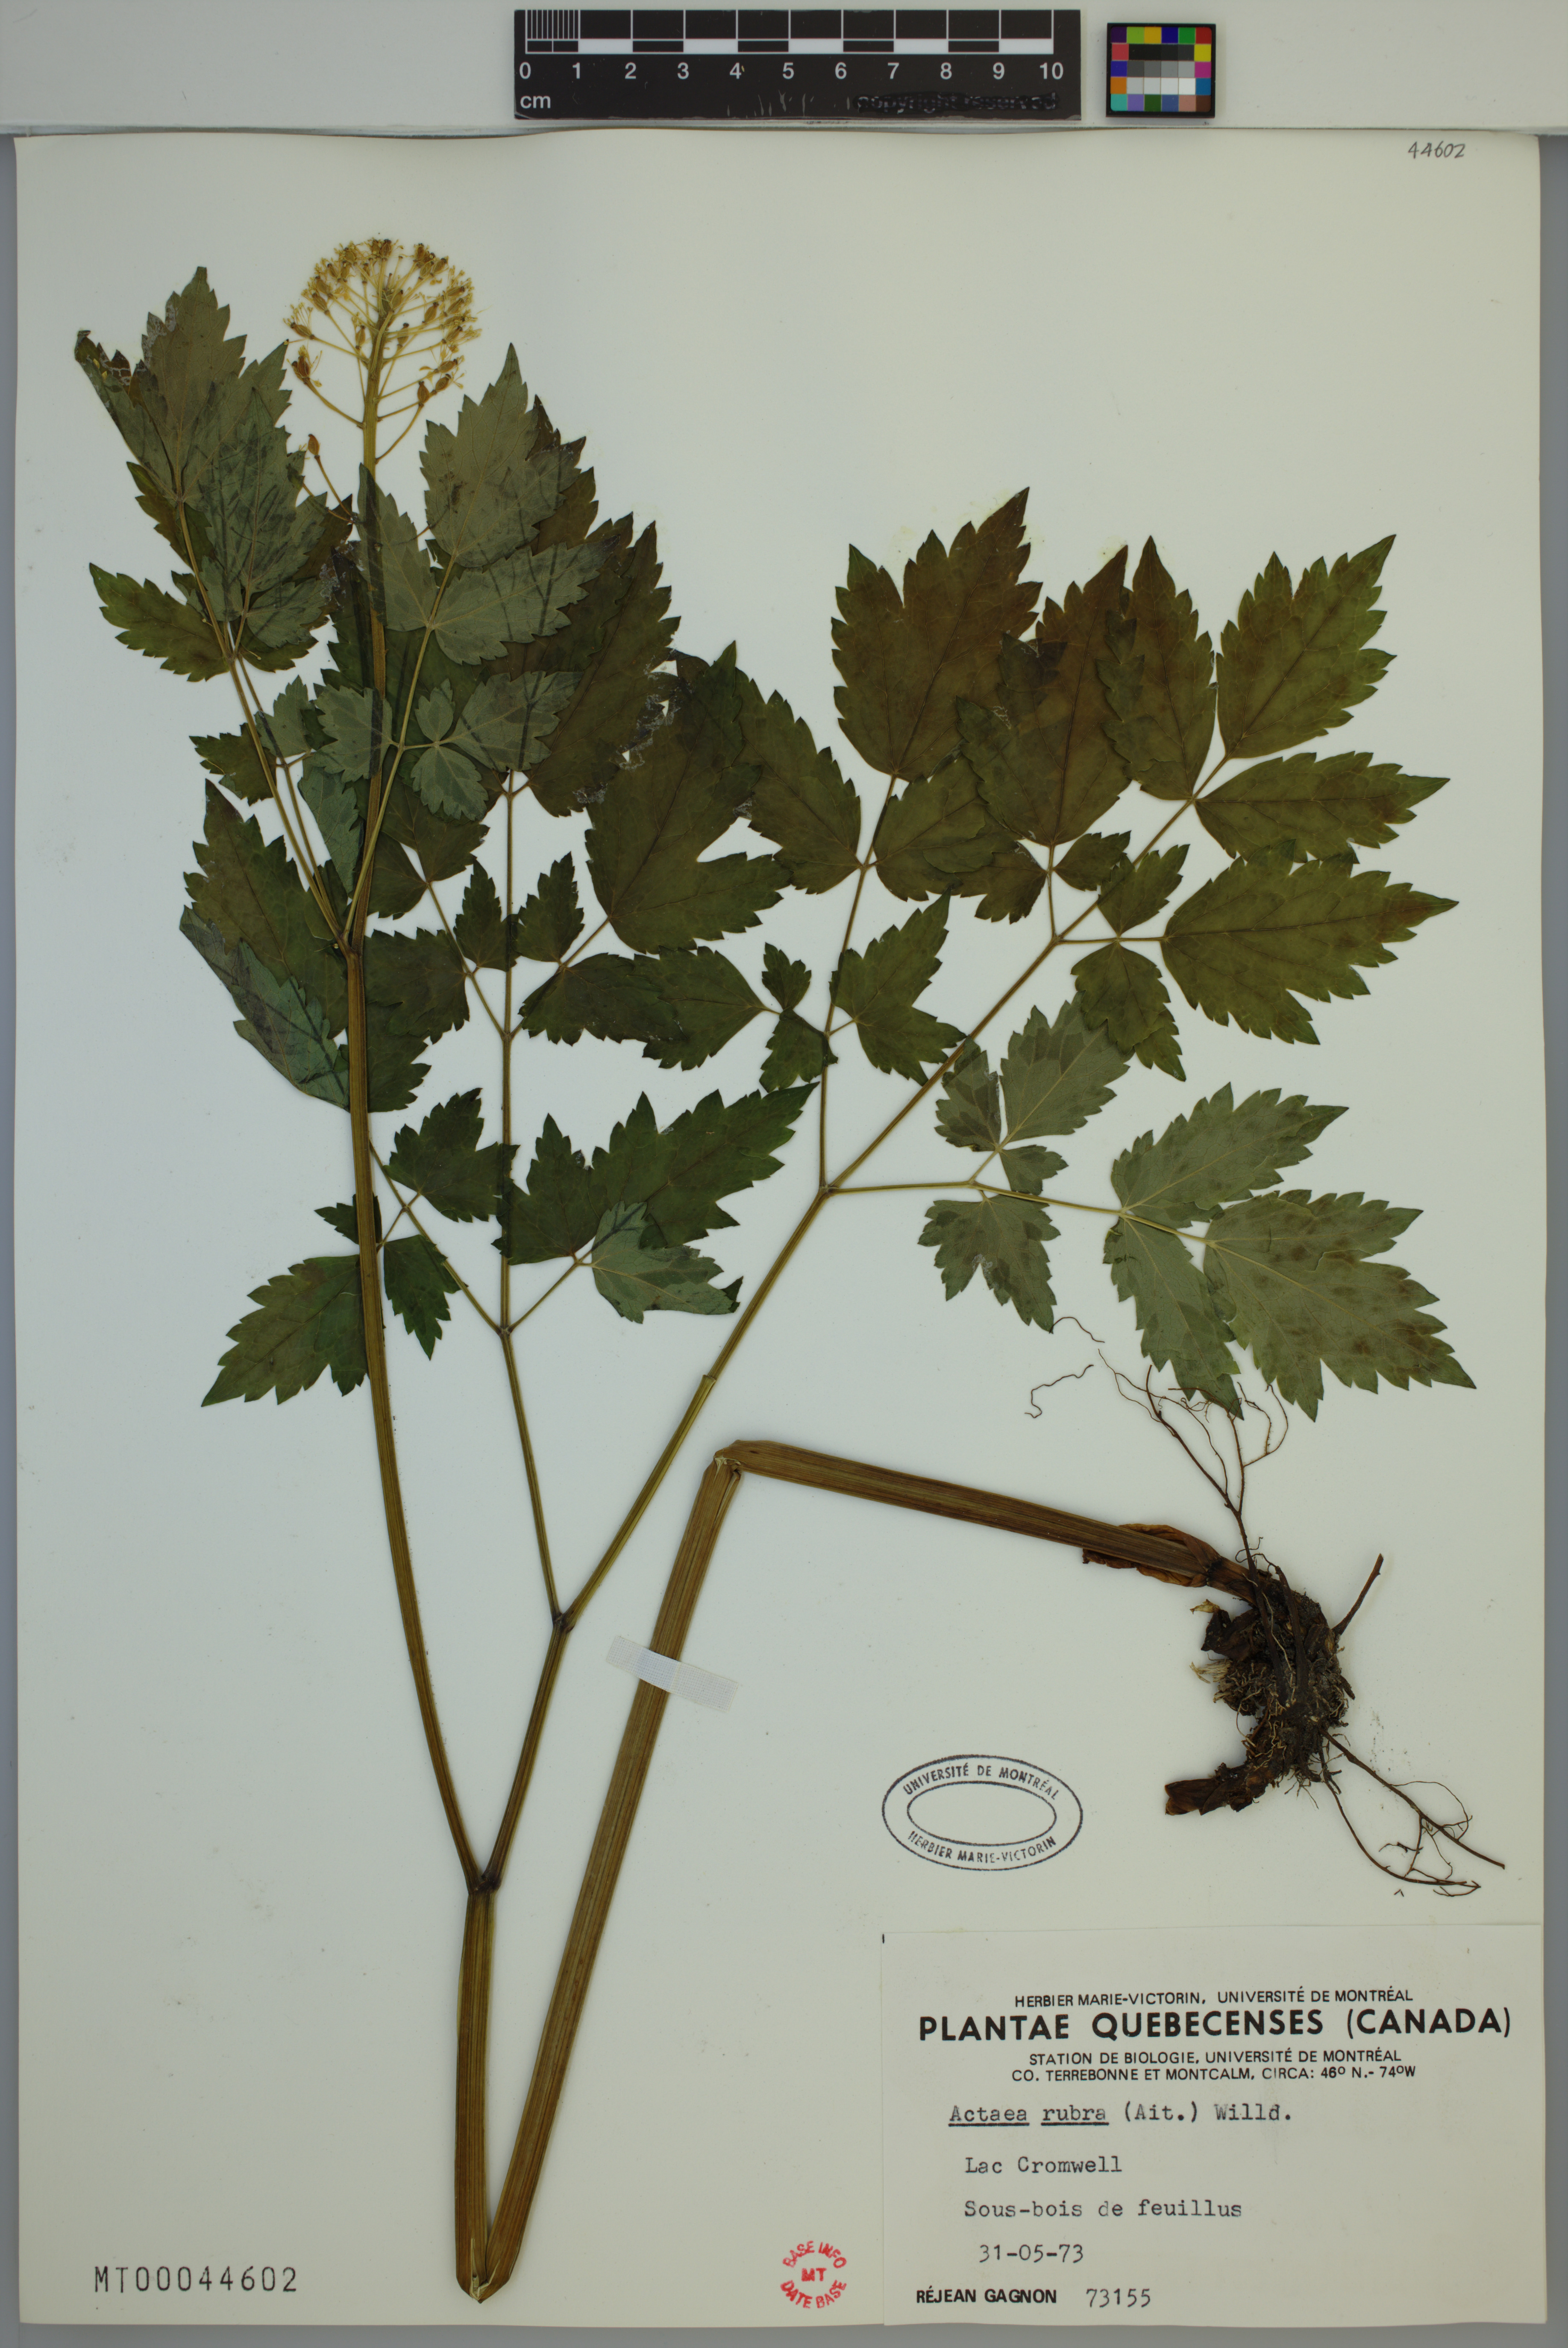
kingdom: Plantae
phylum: Tracheophyta
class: Magnoliopsida
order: Ranunculales
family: Ranunculaceae
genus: Actaea
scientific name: Actaea rubra
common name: Red baneberry
